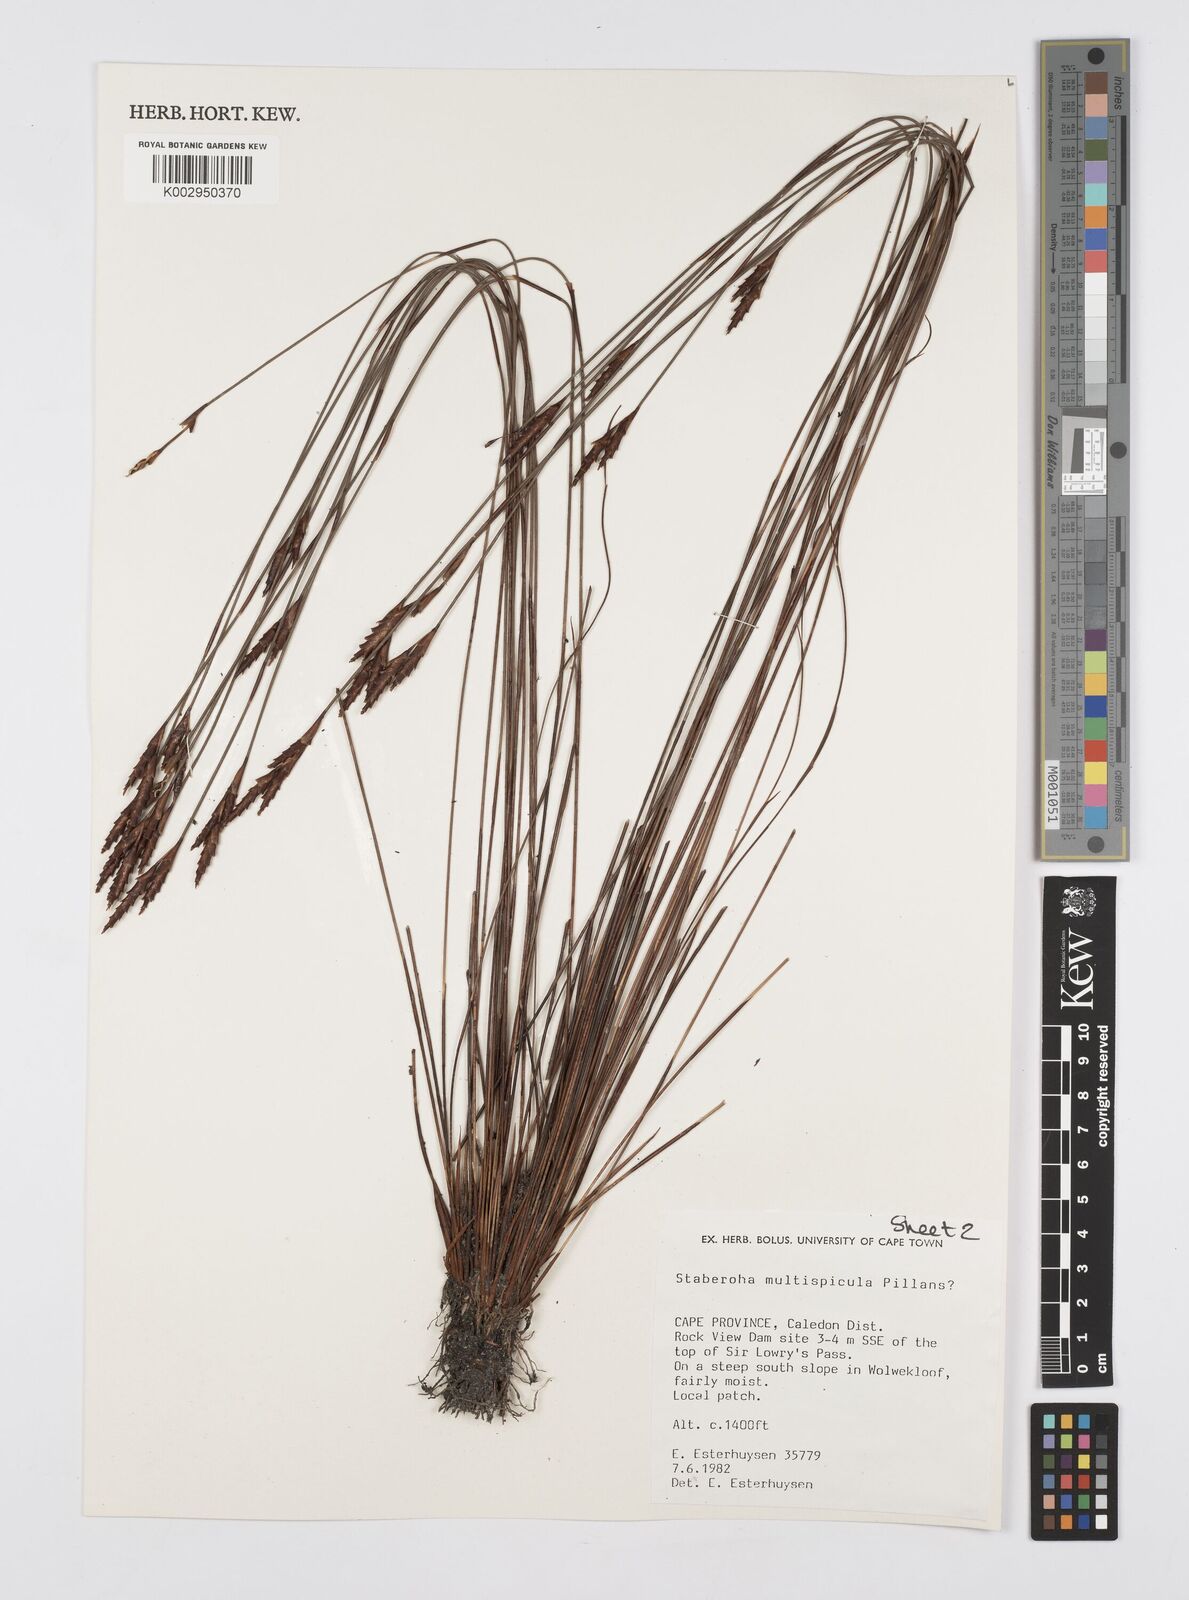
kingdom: Plantae
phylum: Tracheophyta
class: Liliopsida
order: Poales
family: Restionaceae
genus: Staberoha
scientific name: Staberoha multispicula
